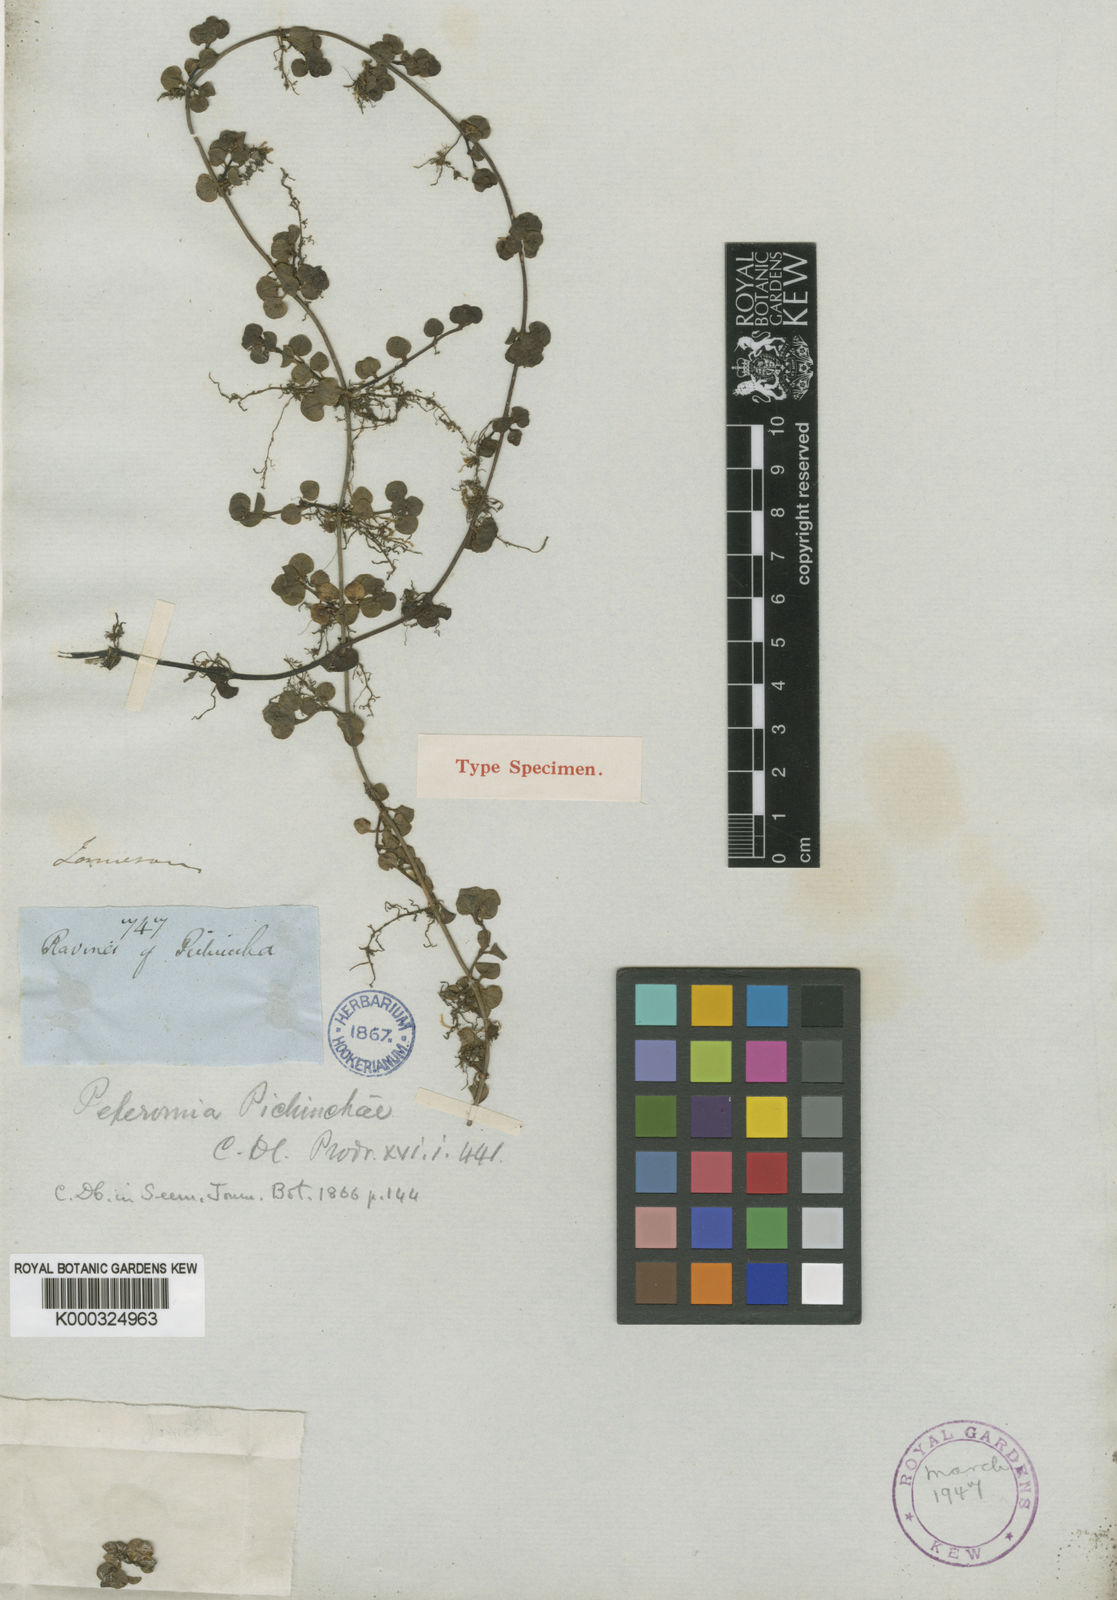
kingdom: Plantae
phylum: Tracheophyta
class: Magnoliopsida
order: Piperales
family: Piperaceae
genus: Peperomia
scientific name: Peperomia pichinchae
